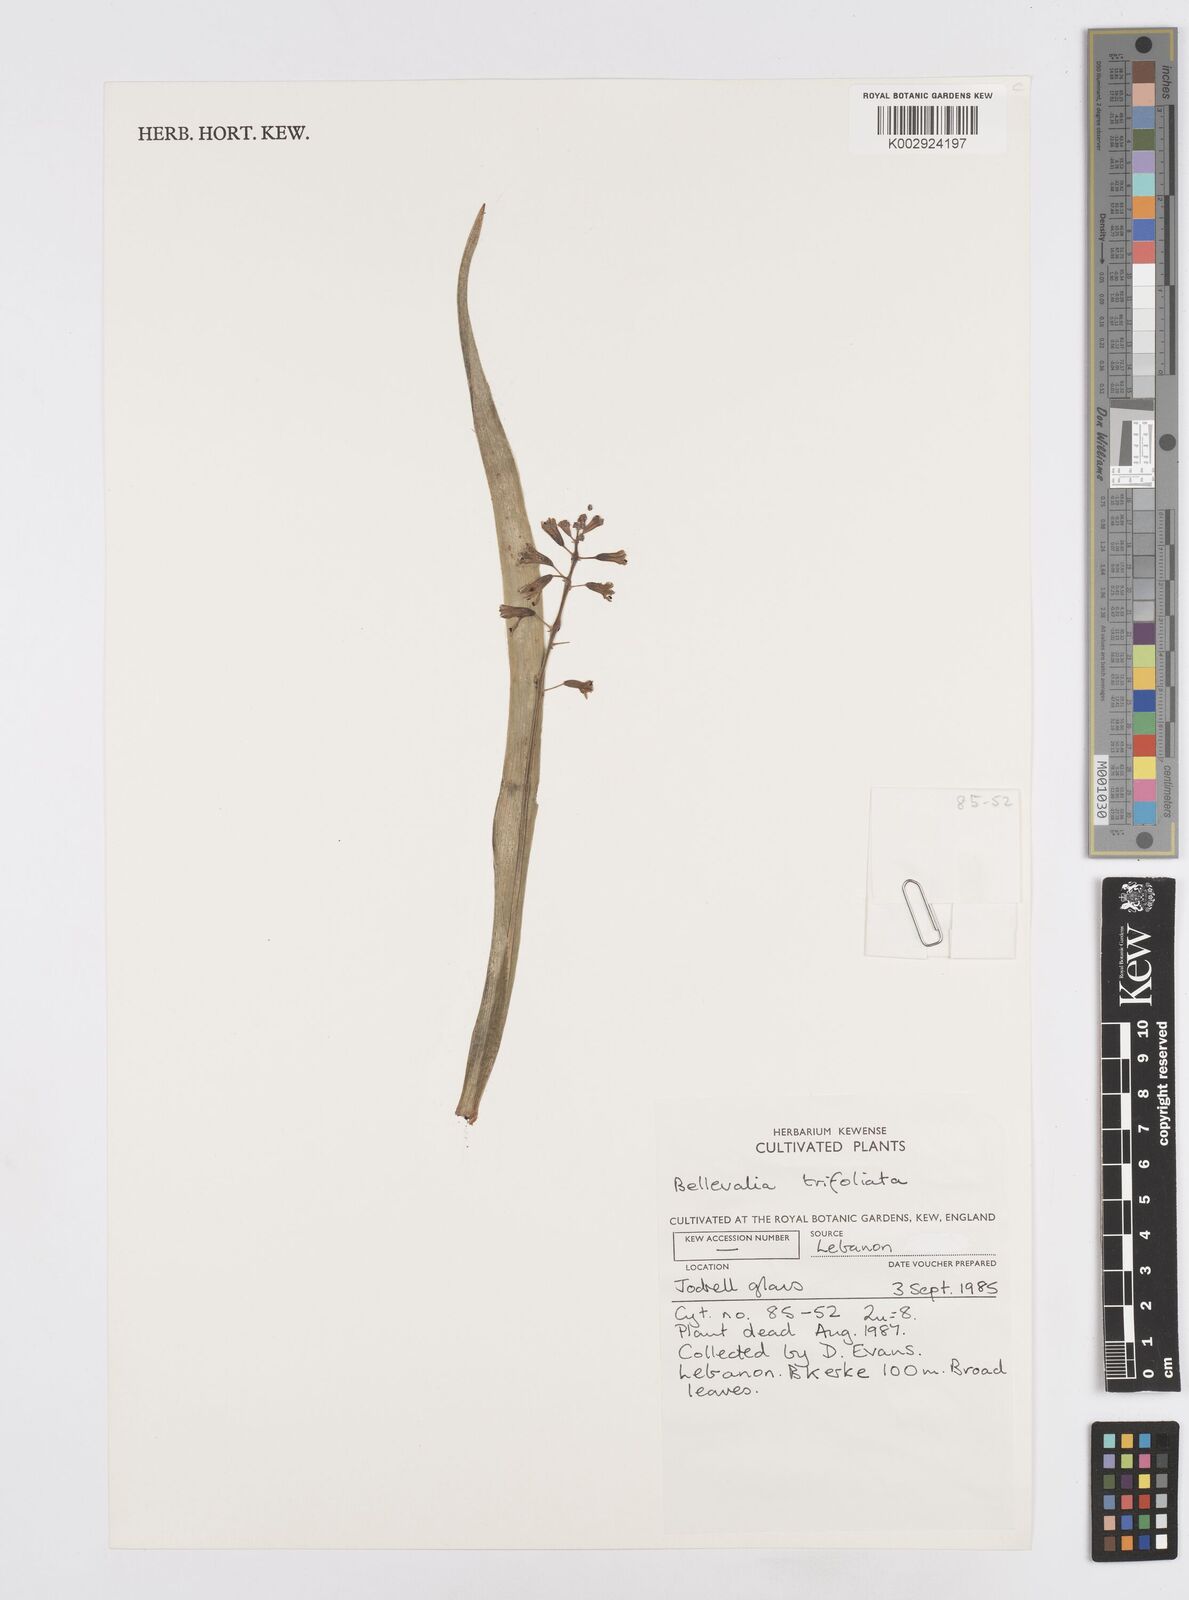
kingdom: Plantae
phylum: Tracheophyta
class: Liliopsida
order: Asparagales
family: Asparagaceae
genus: Bellevalia
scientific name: Bellevalia trifoliata
